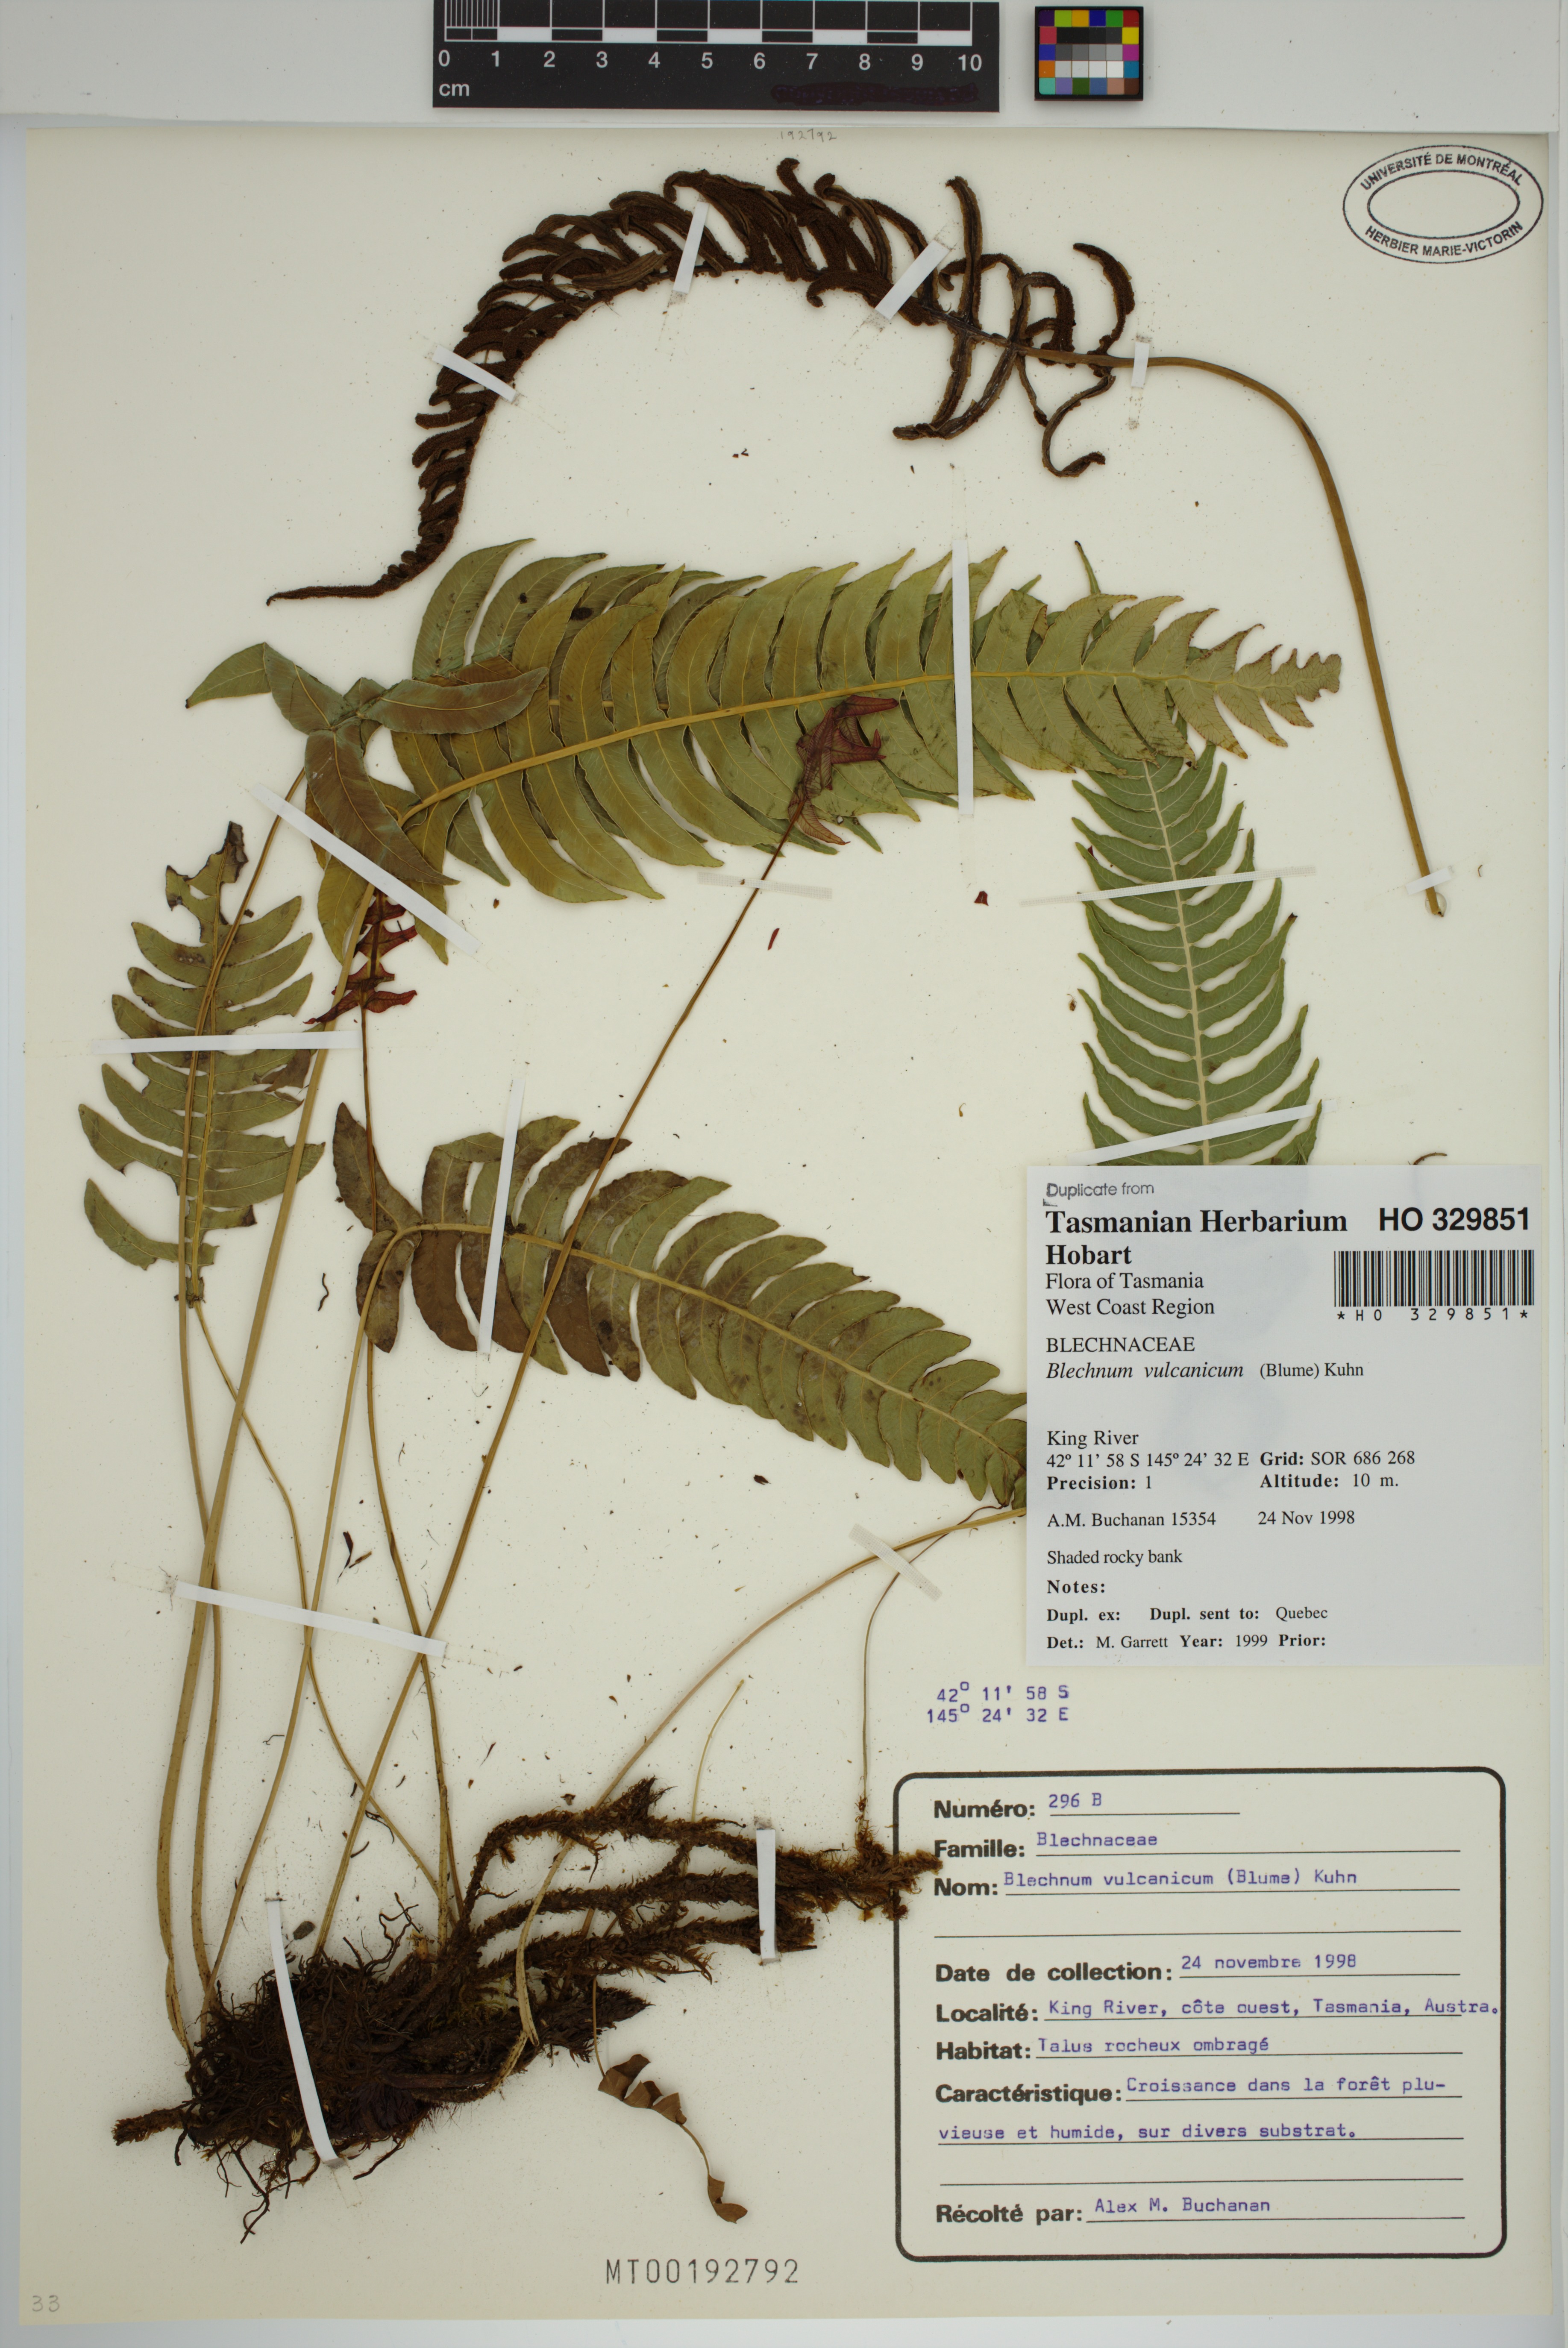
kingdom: Plantae
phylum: Tracheophyta
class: Polypodiopsida
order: Polypodiales
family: Blechnaceae
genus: Cranfillia
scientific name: Cranfillia vulcanica
